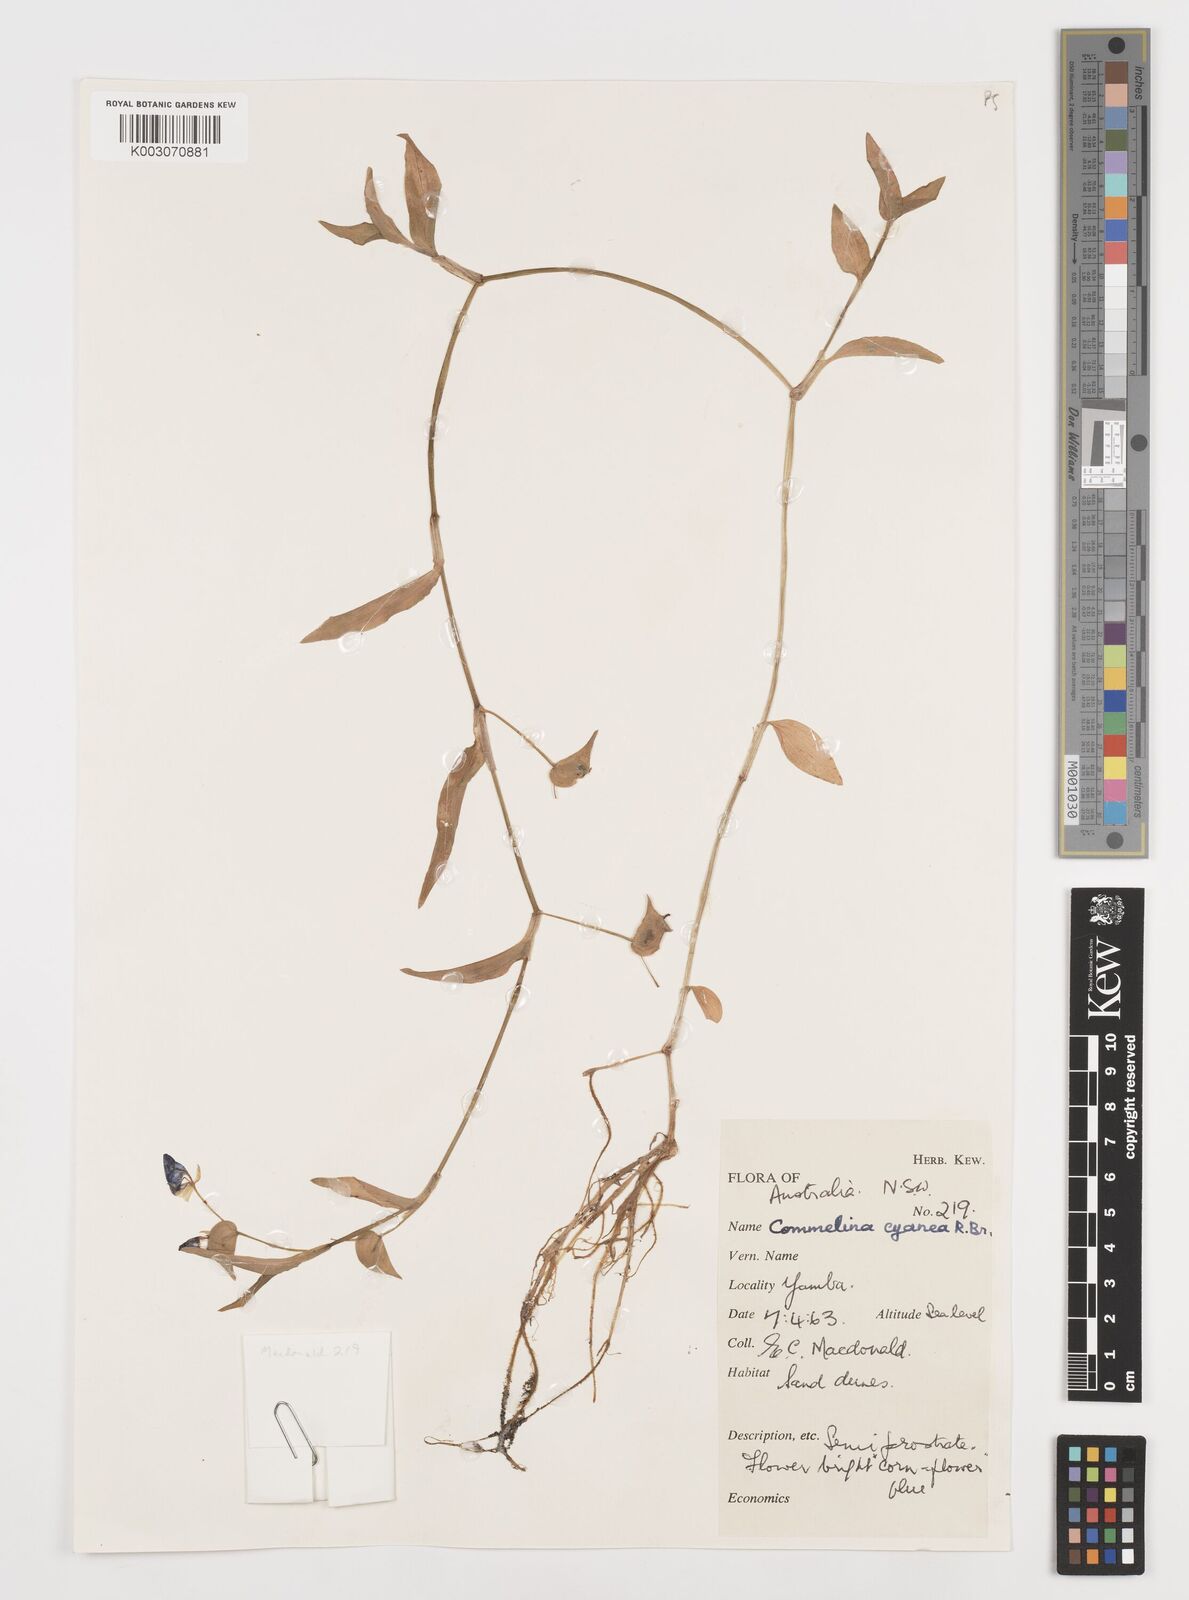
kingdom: Plantae
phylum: Tracheophyta
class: Liliopsida
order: Commelinales
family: Commelinaceae
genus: Commelina
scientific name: Commelina cyanea
